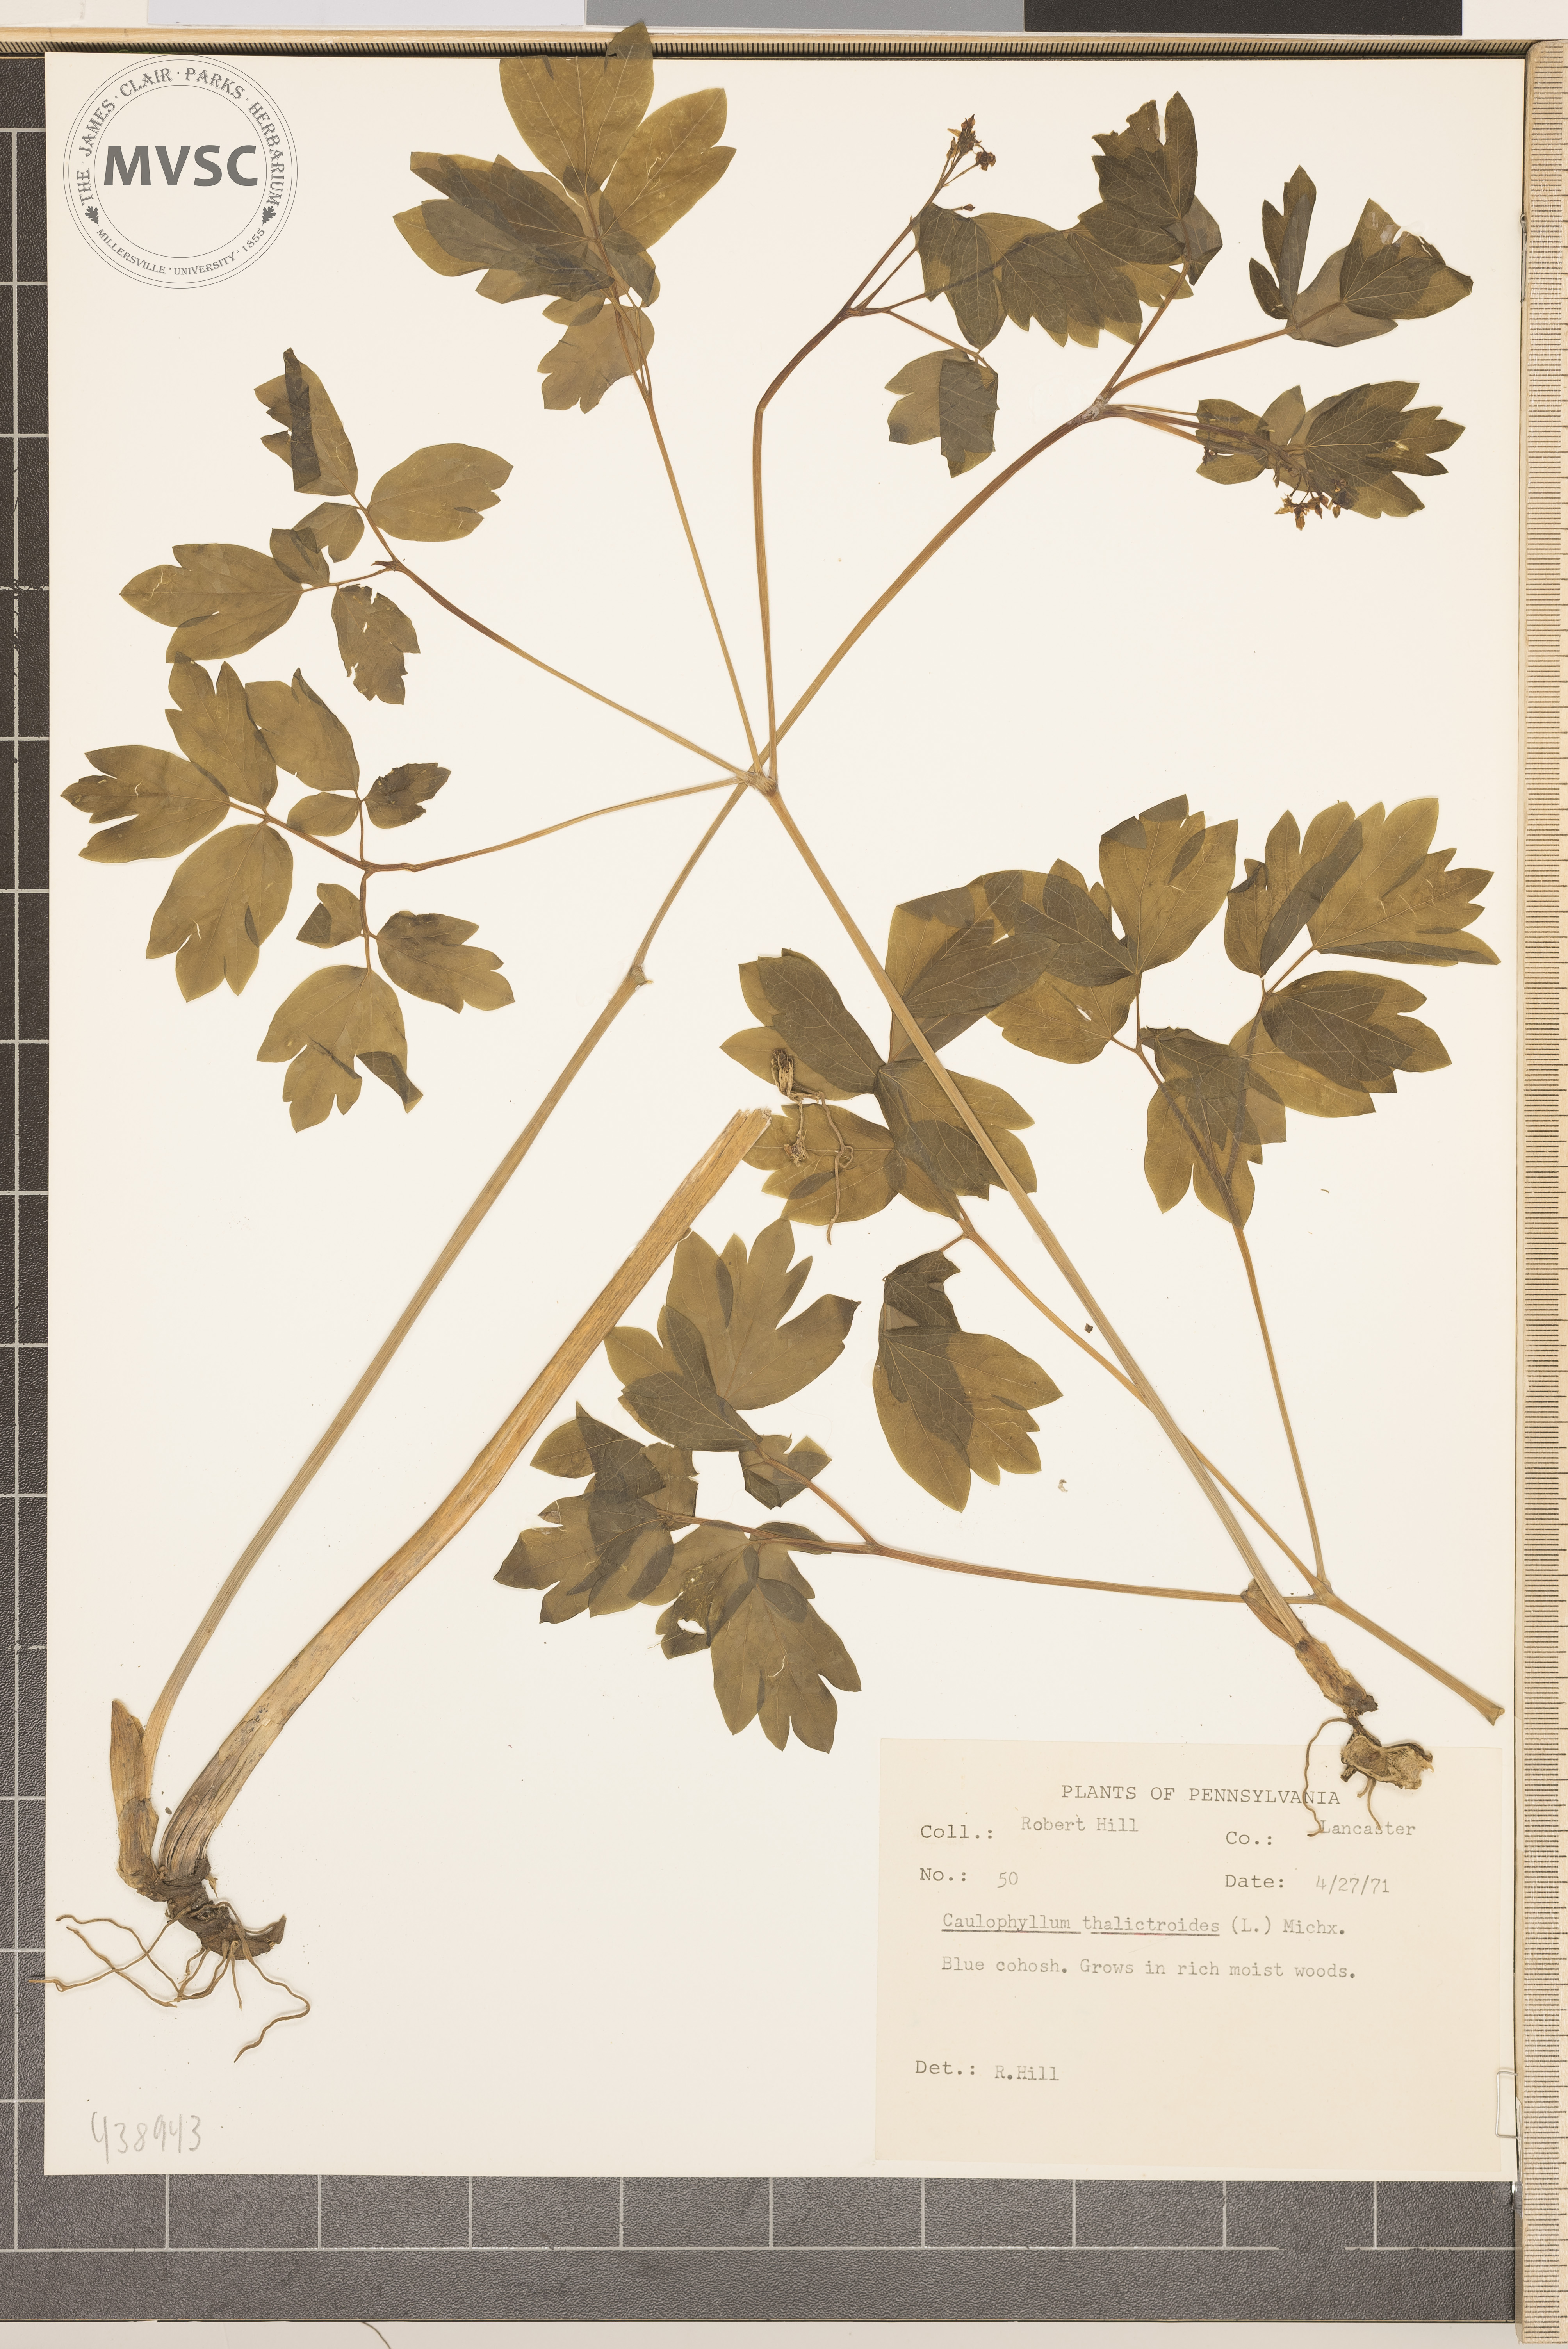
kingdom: Plantae
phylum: Tracheophyta
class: Magnoliopsida
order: Ranunculales
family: Berberidaceae
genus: Caulophyllum
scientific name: Caulophyllum thalictroides
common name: Blue cohosh
